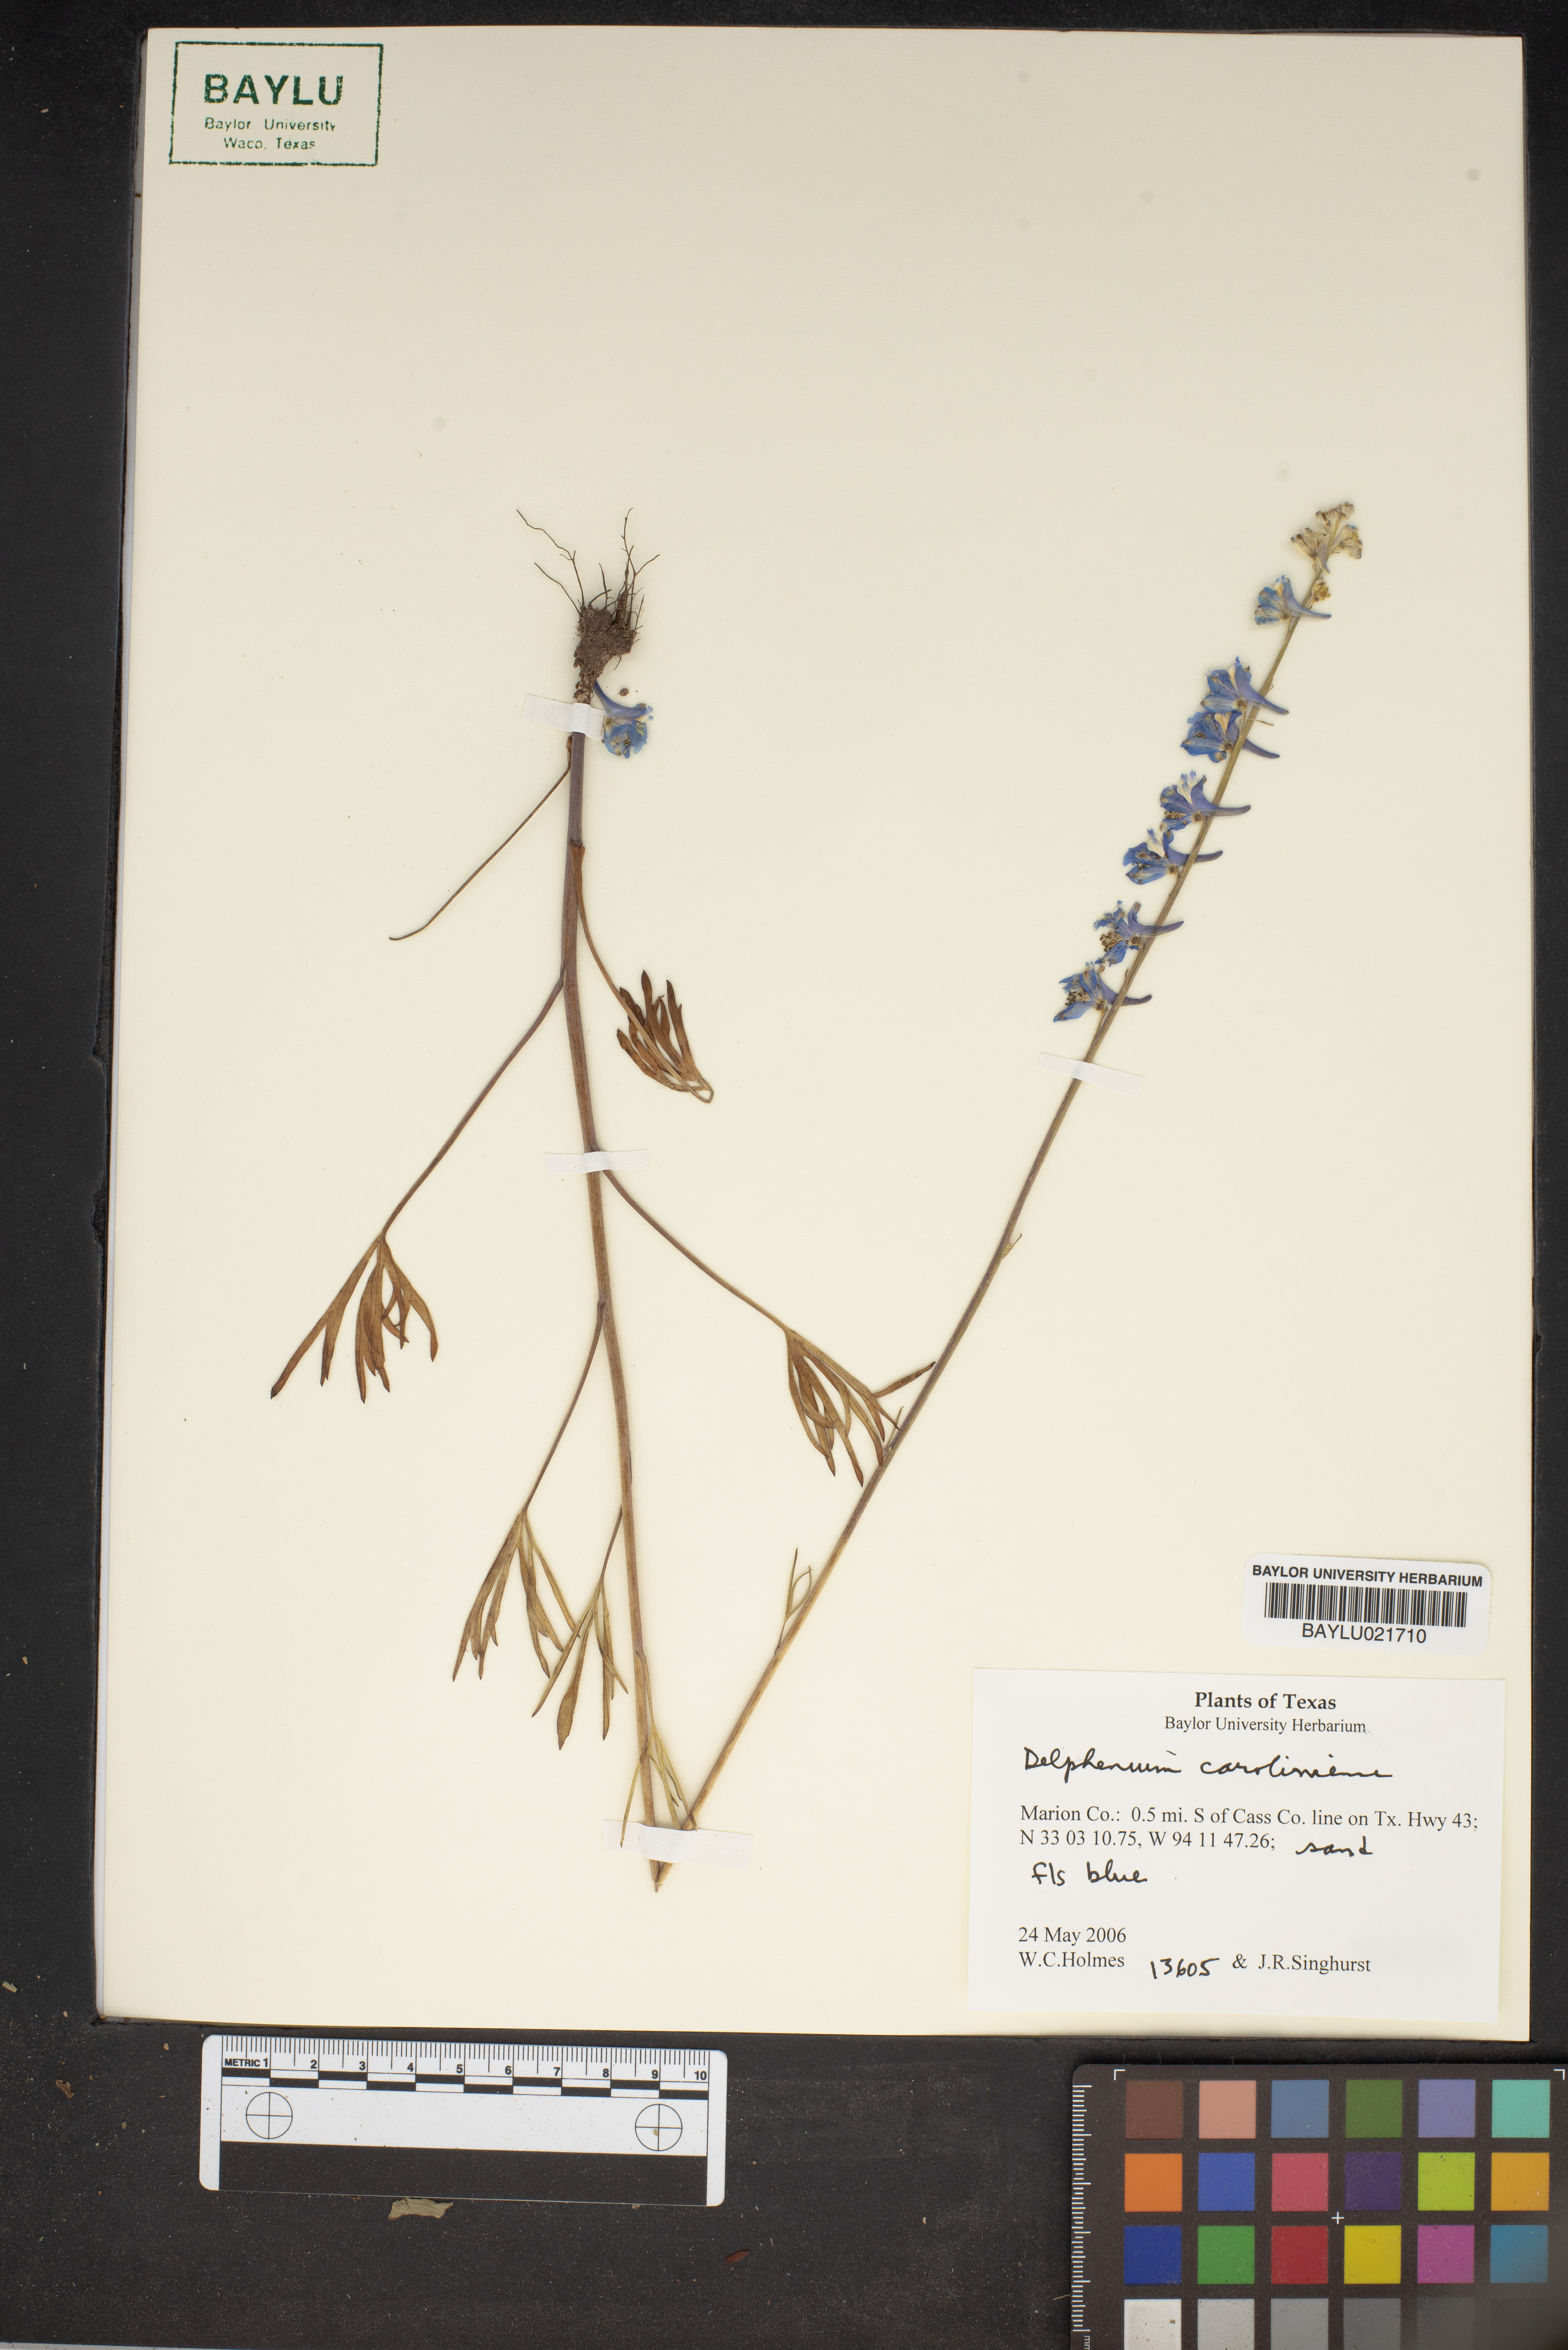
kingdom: Plantae
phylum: Tracheophyta
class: Magnoliopsida
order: Ranunculales
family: Ranunculaceae
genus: Delphinium
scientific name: Delphinium carolinianum
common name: Carolina larkspur
